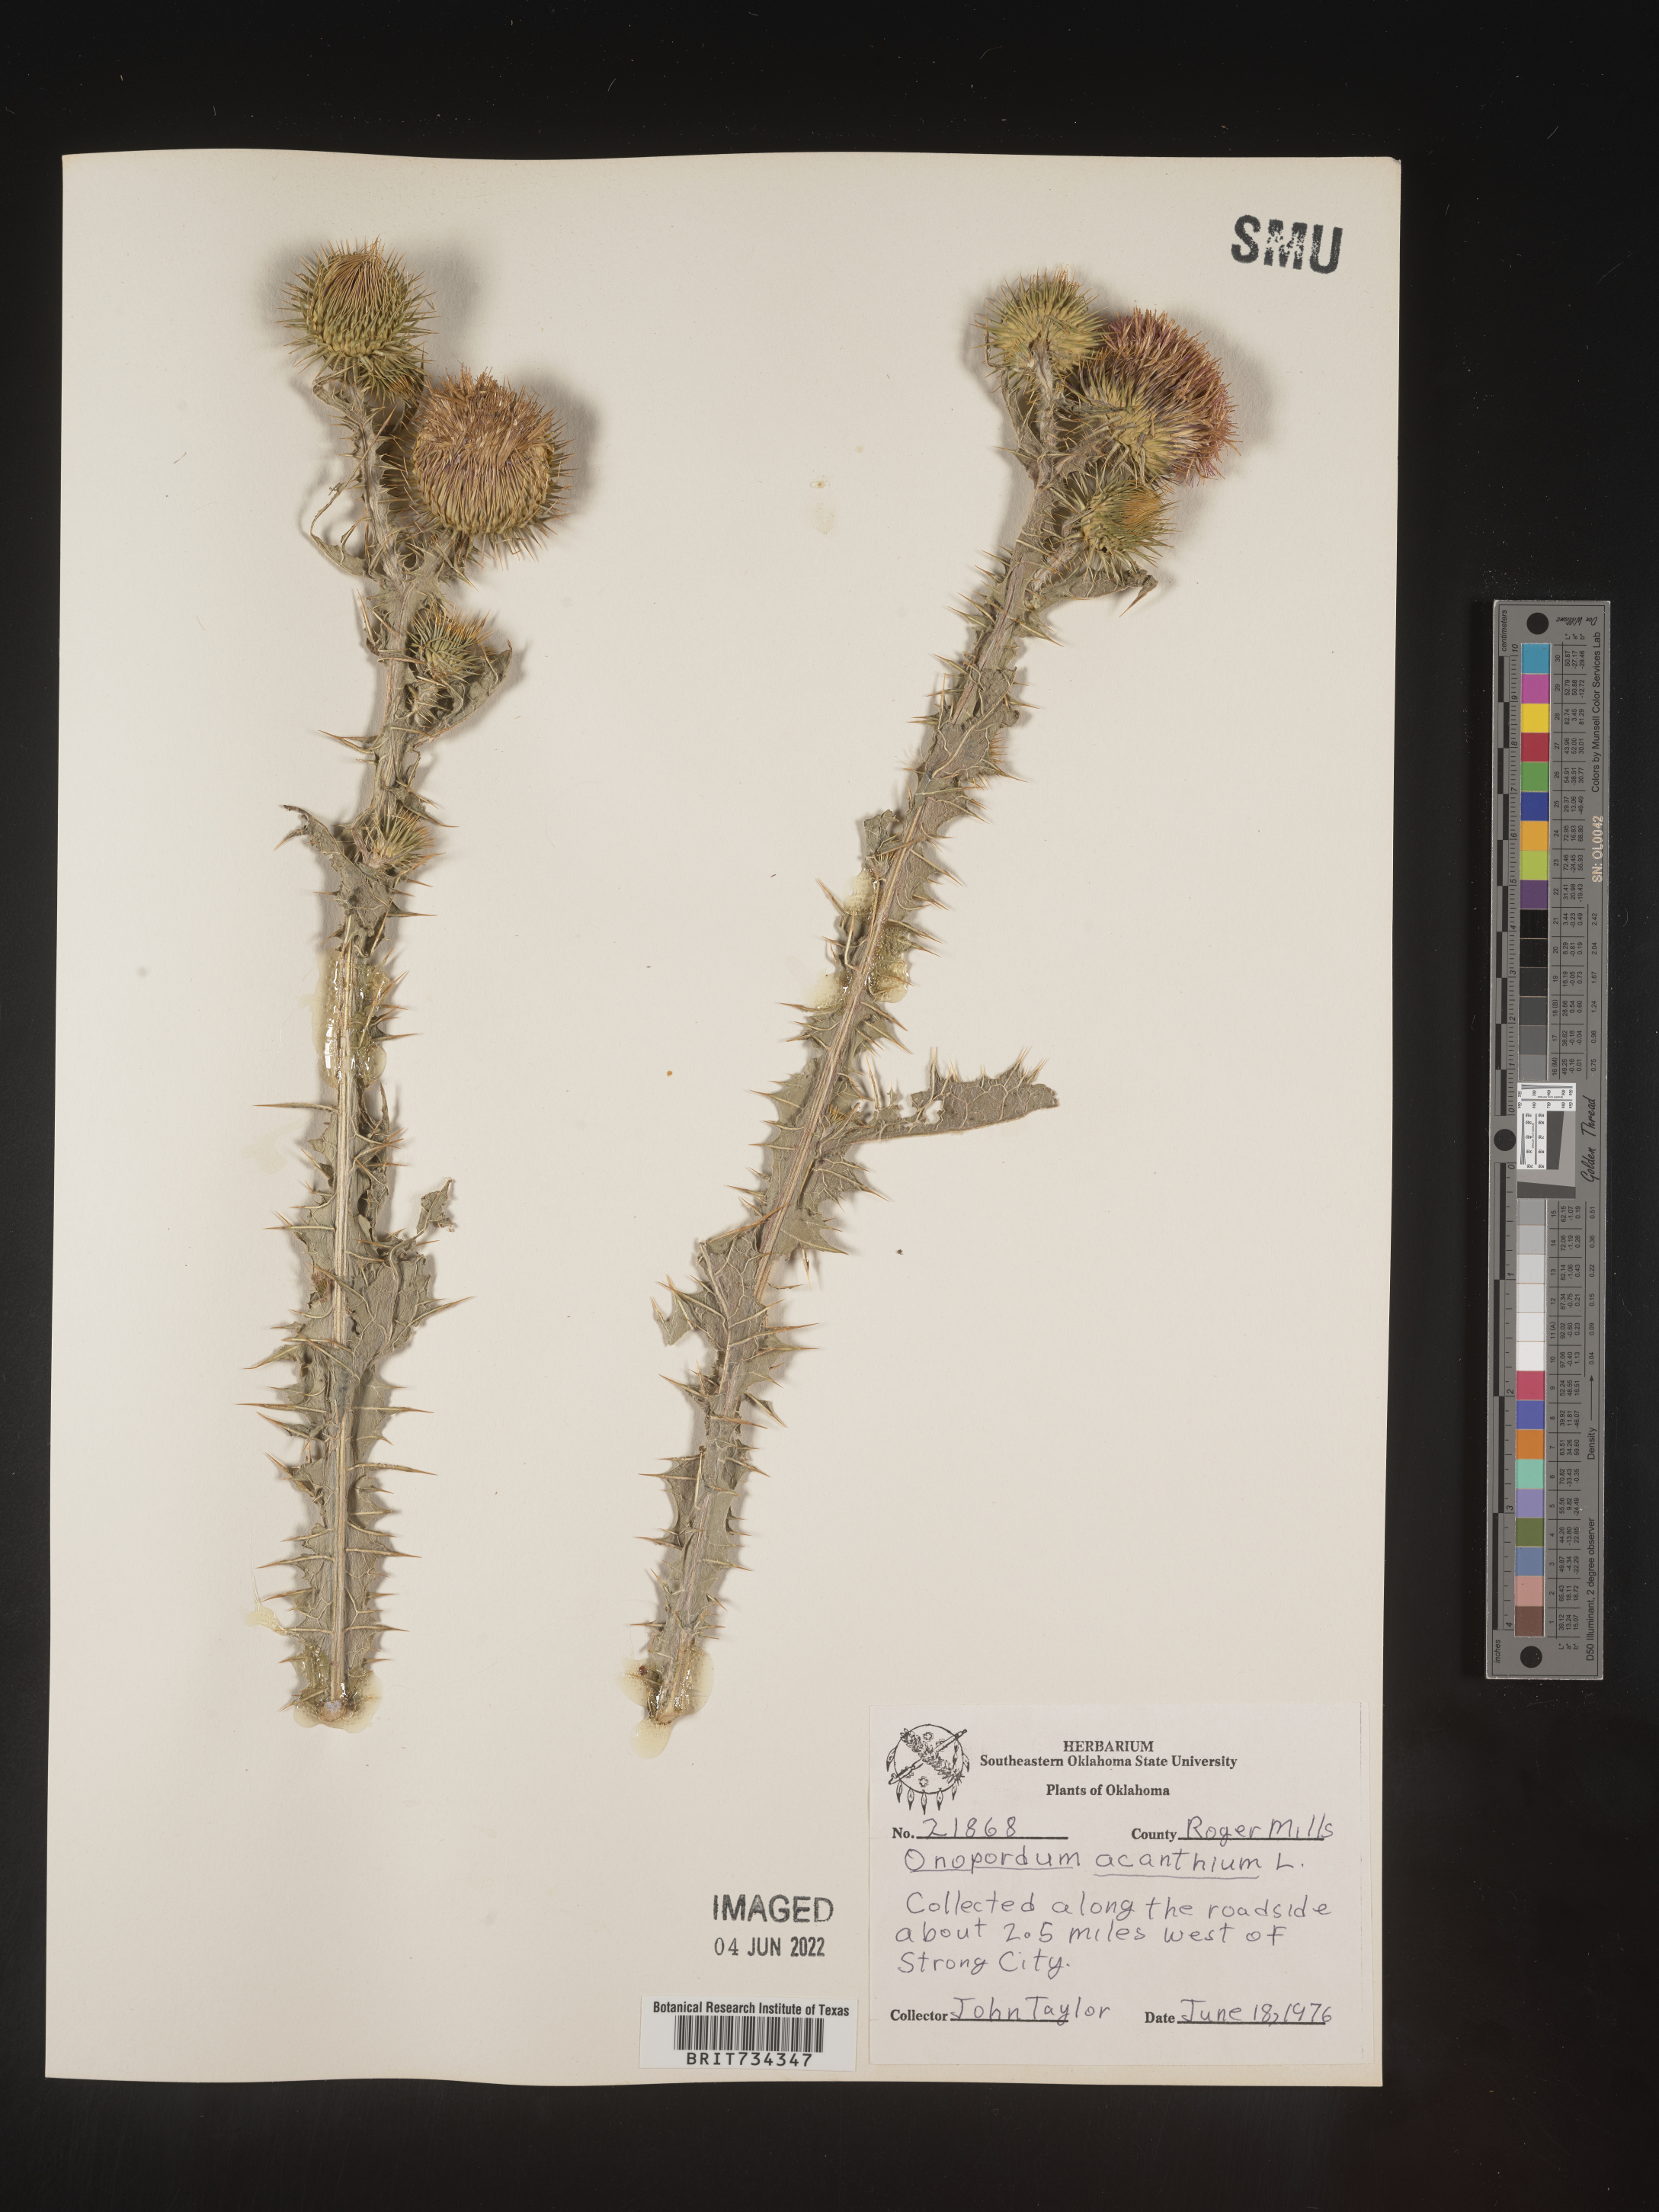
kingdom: Plantae
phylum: Tracheophyta
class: Magnoliopsida
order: Asterales
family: Asteraceae
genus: Onopordum
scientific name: Onopordum acanthium
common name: Scotch thistle
